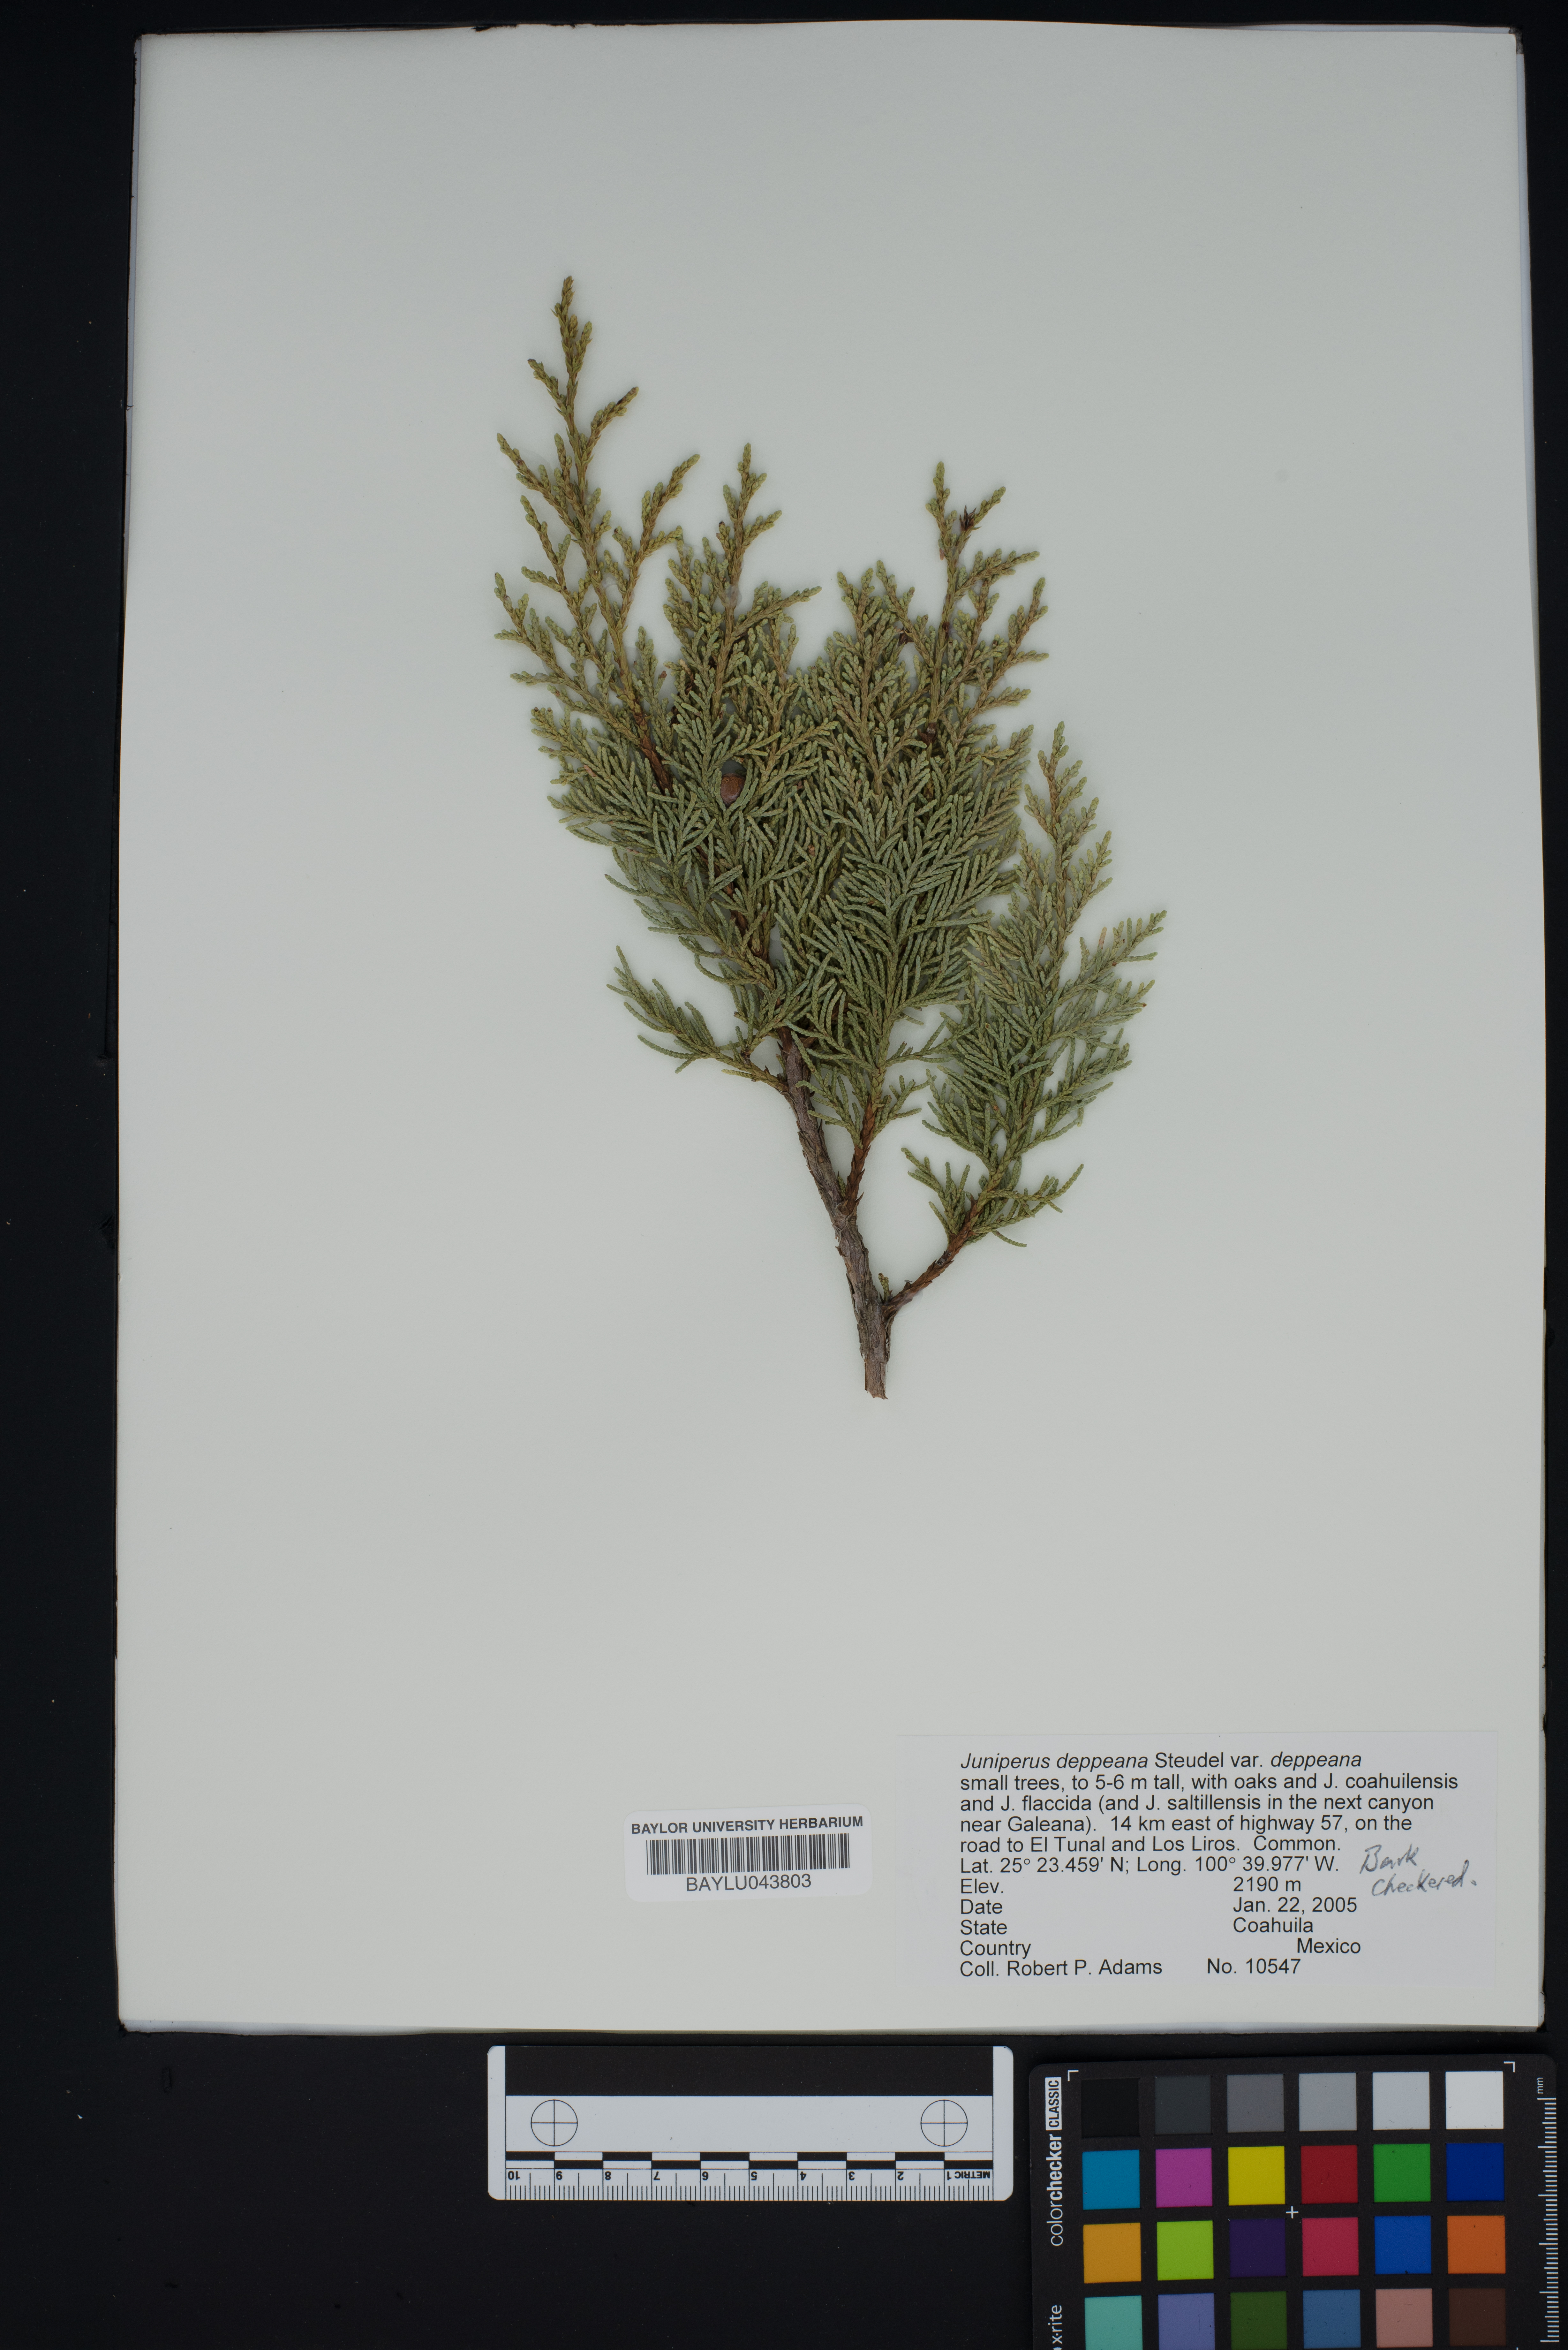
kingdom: Plantae
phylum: Tracheophyta
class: Pinopsida
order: Pinales
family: Cupressaceae
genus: Juniperus
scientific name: Juniperus deppeana
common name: Alligator juniper
